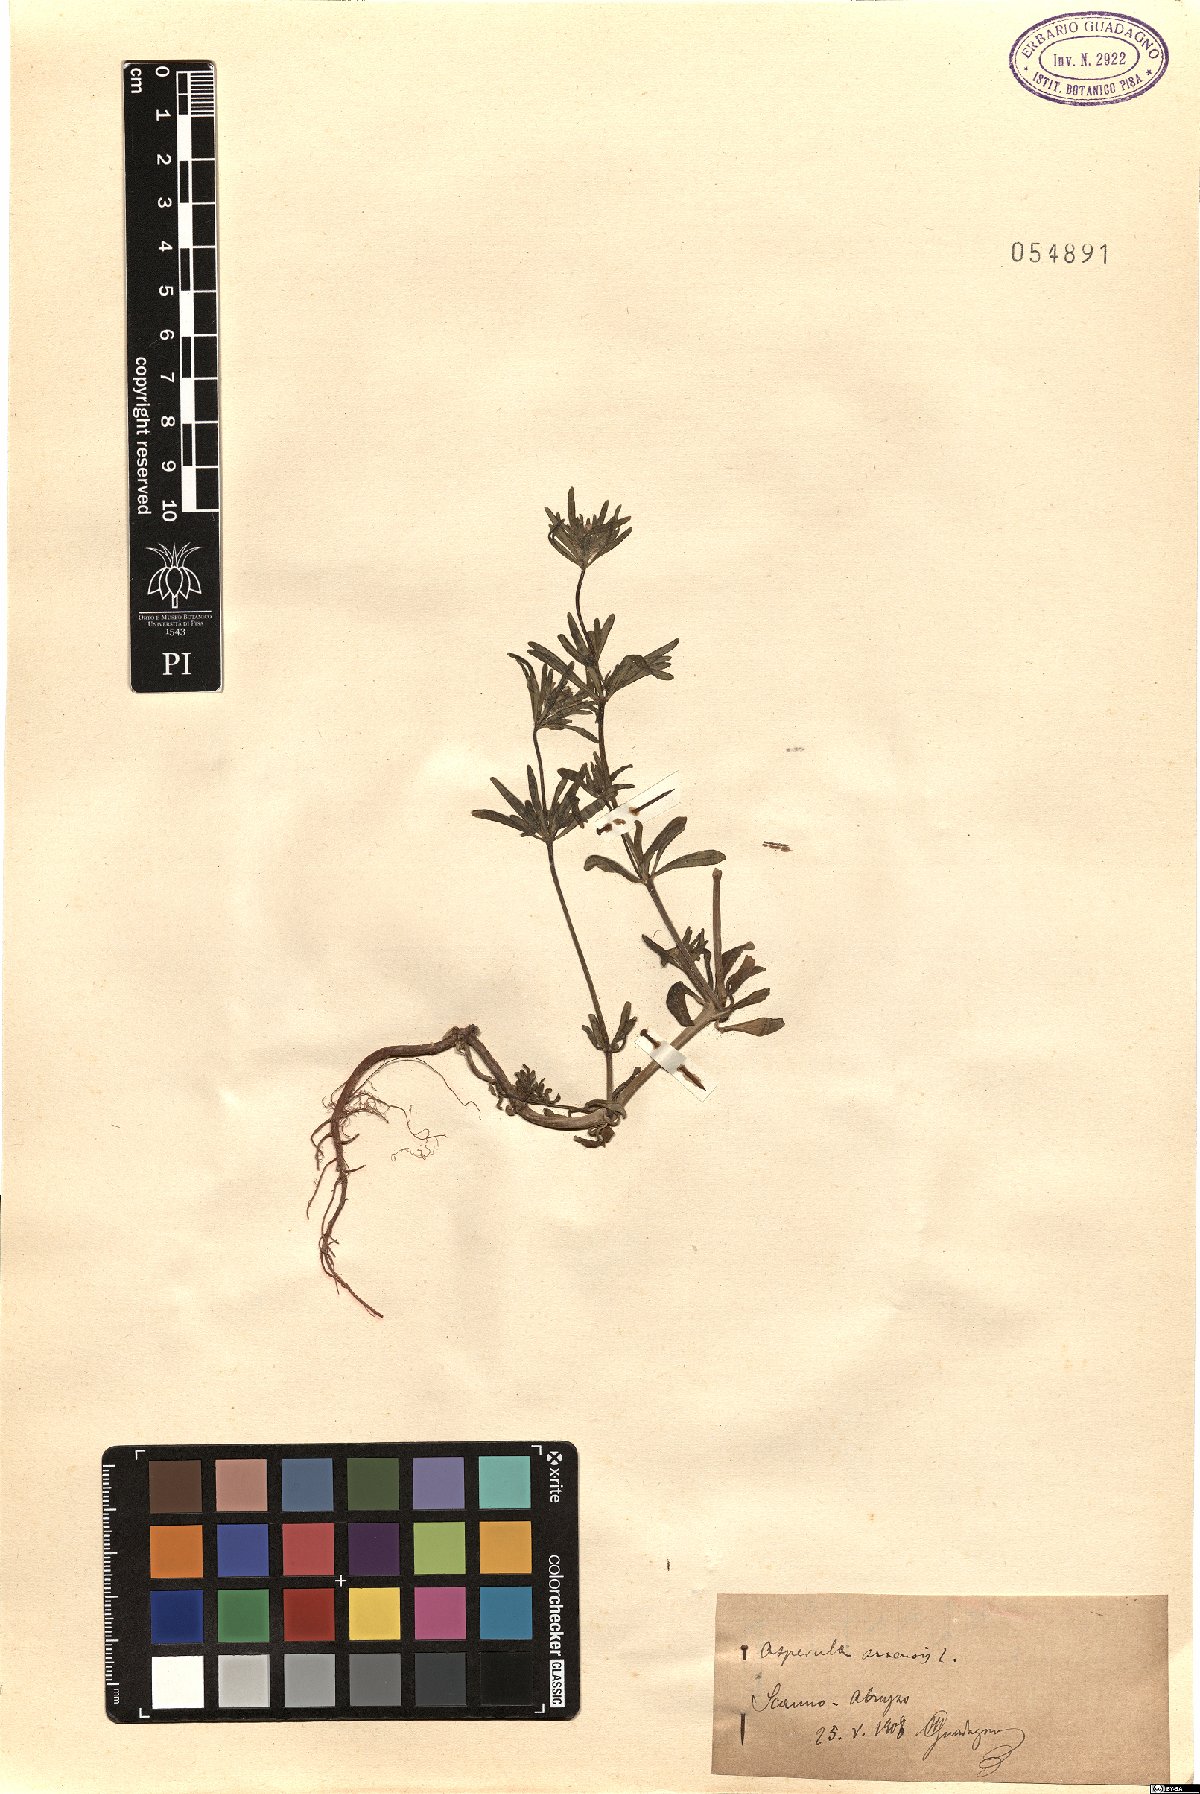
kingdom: Plantae
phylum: Tracheophyta
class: Magnoliopsida
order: Gentianales
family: Rubiaceae
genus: Asperula
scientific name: Asperula arvensis
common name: Blue woodruff
